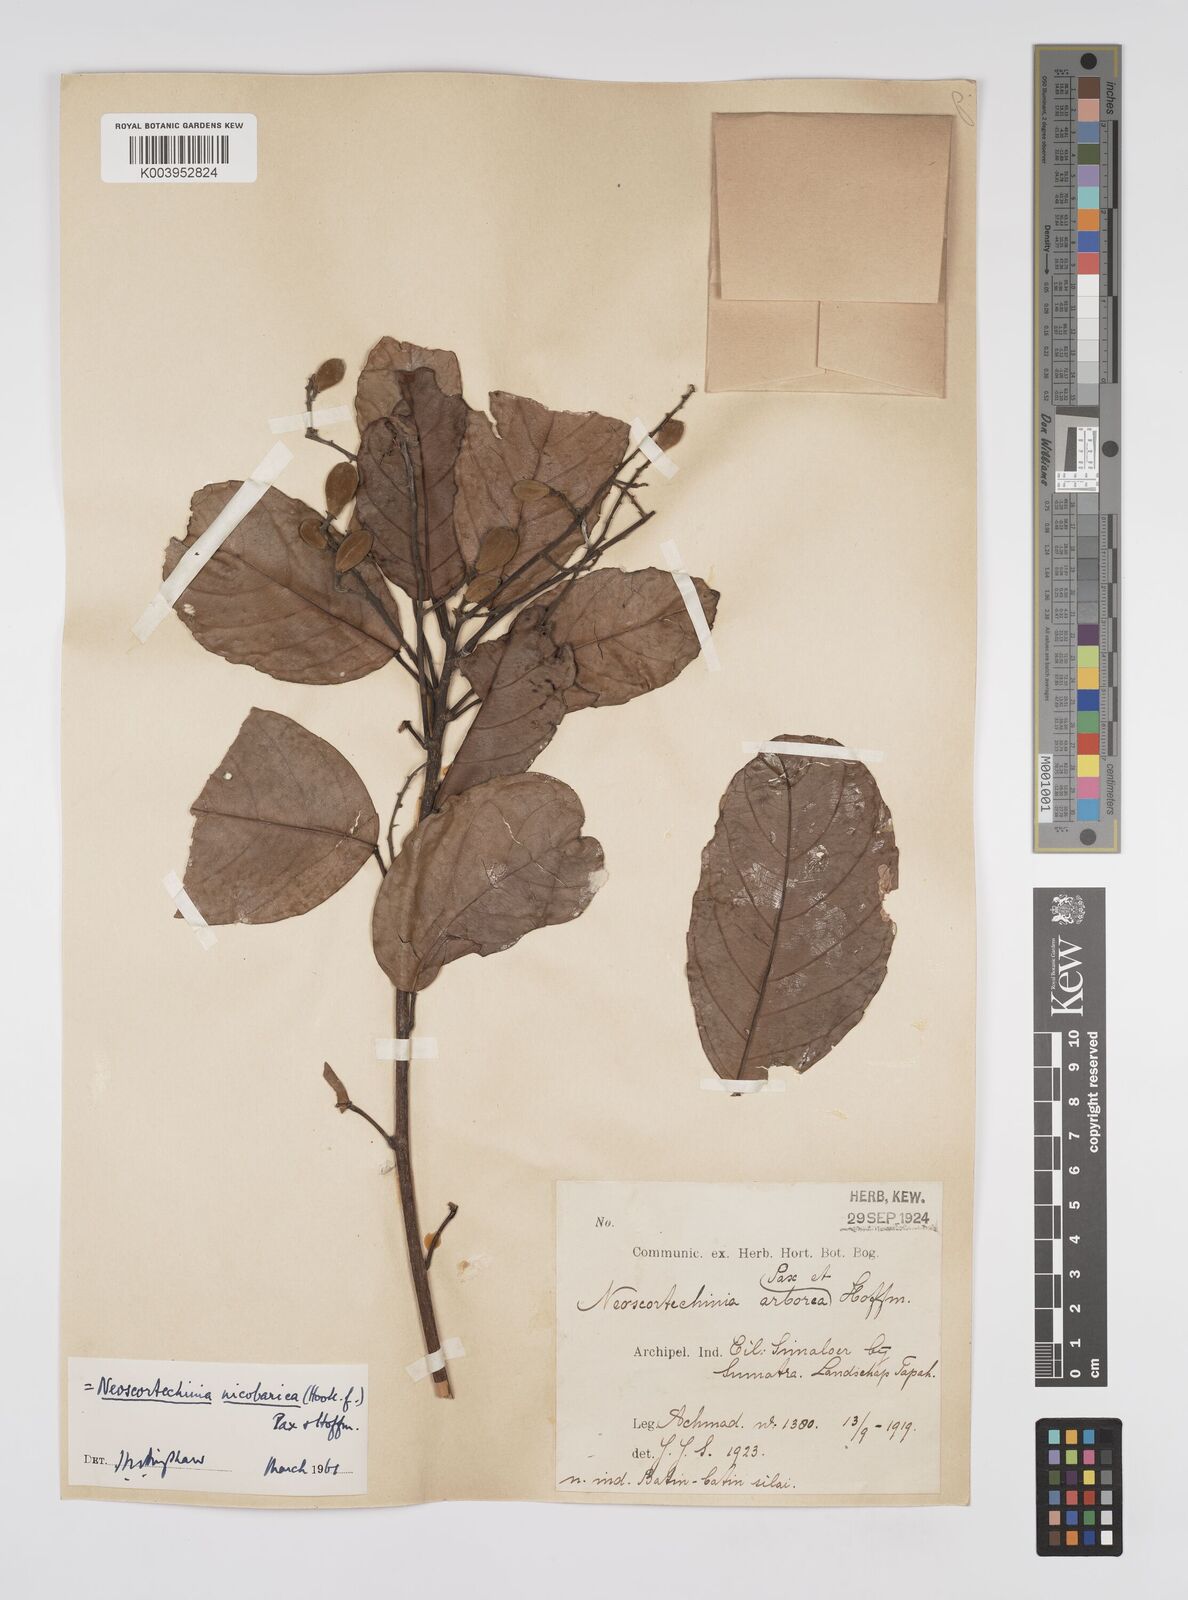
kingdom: Plantae
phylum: Tracheophyta
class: Magnoliopsida
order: Malpighiales
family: Euphorbiaceae
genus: Neoscortechinia
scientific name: Neoscortechinia nicobarica
